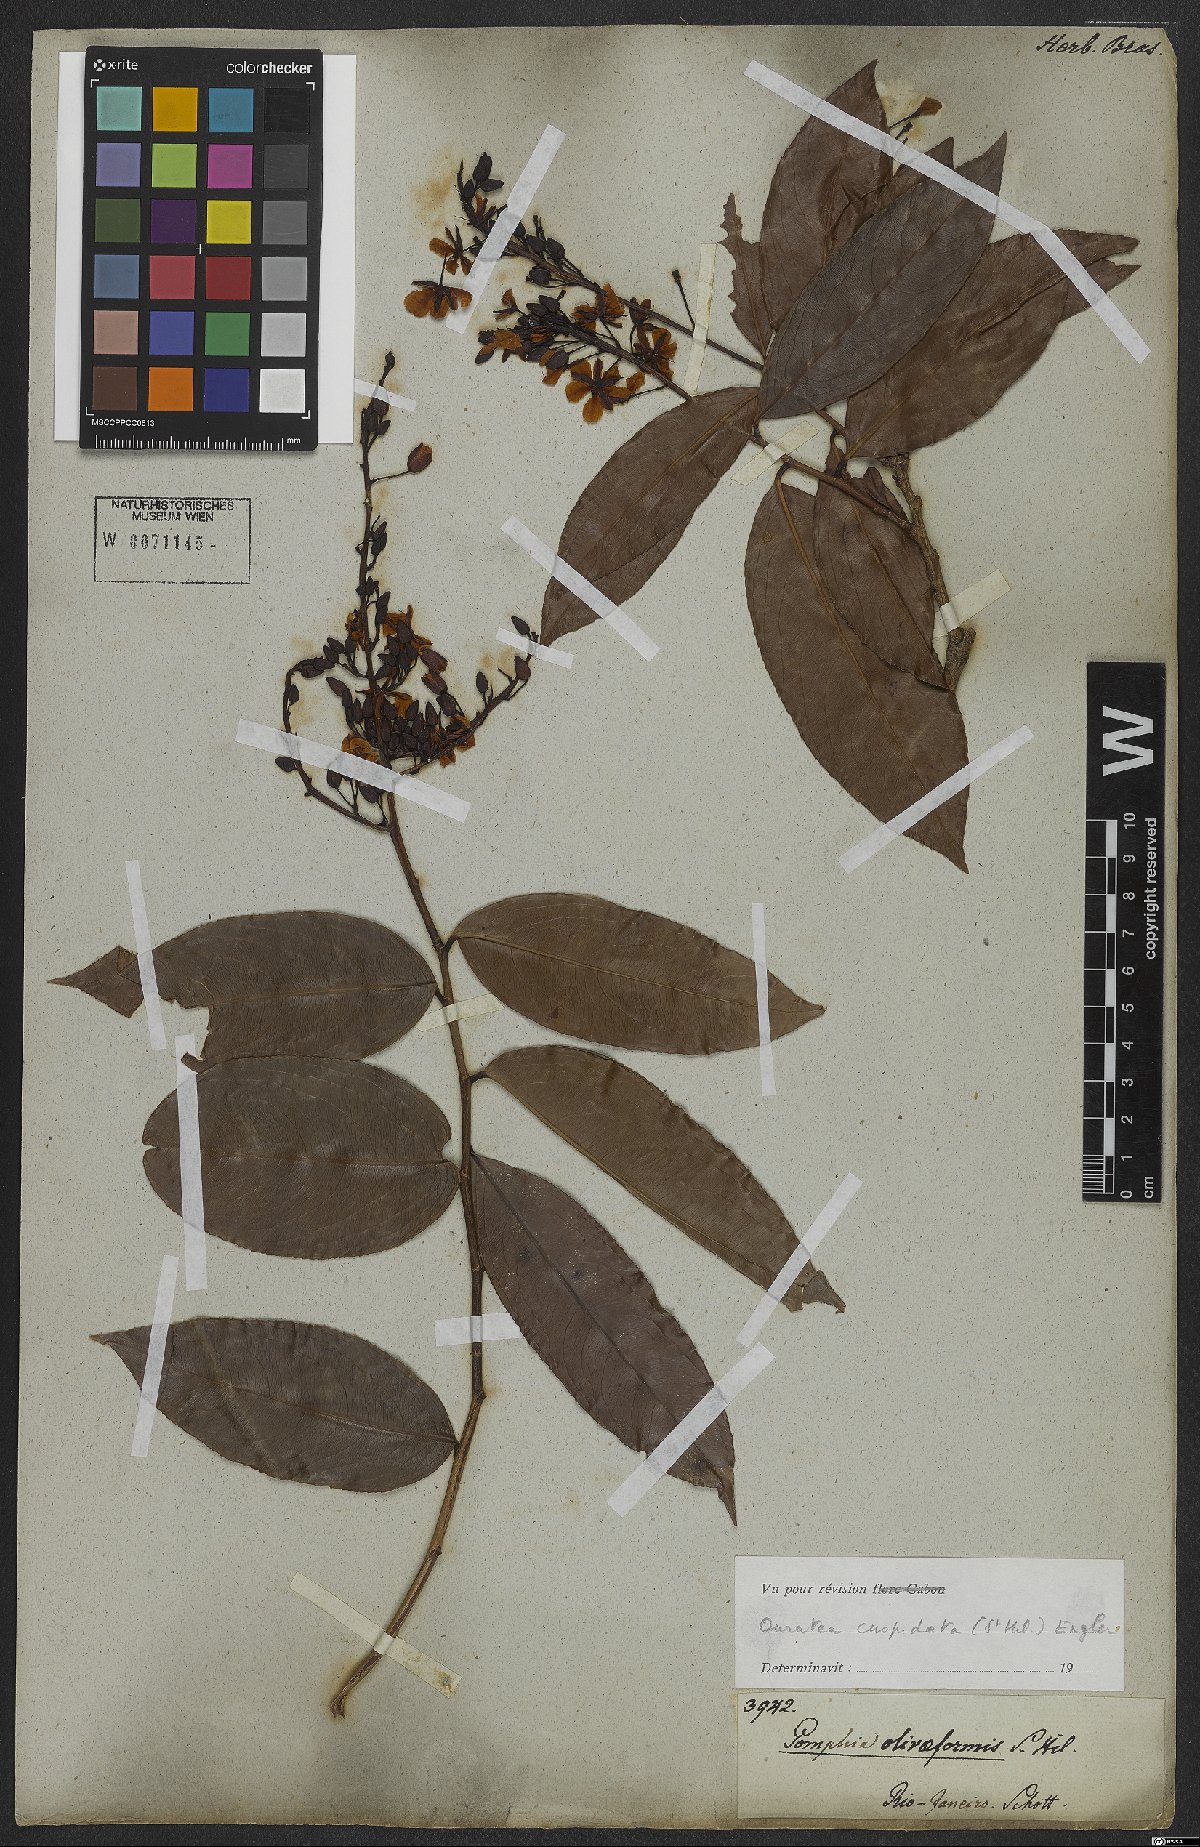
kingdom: Plantae
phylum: Tracheophyta
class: Magnoliopsida
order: Malpighiales
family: Ochnaceae
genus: Ouratea
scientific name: Ouratea cuspidata
